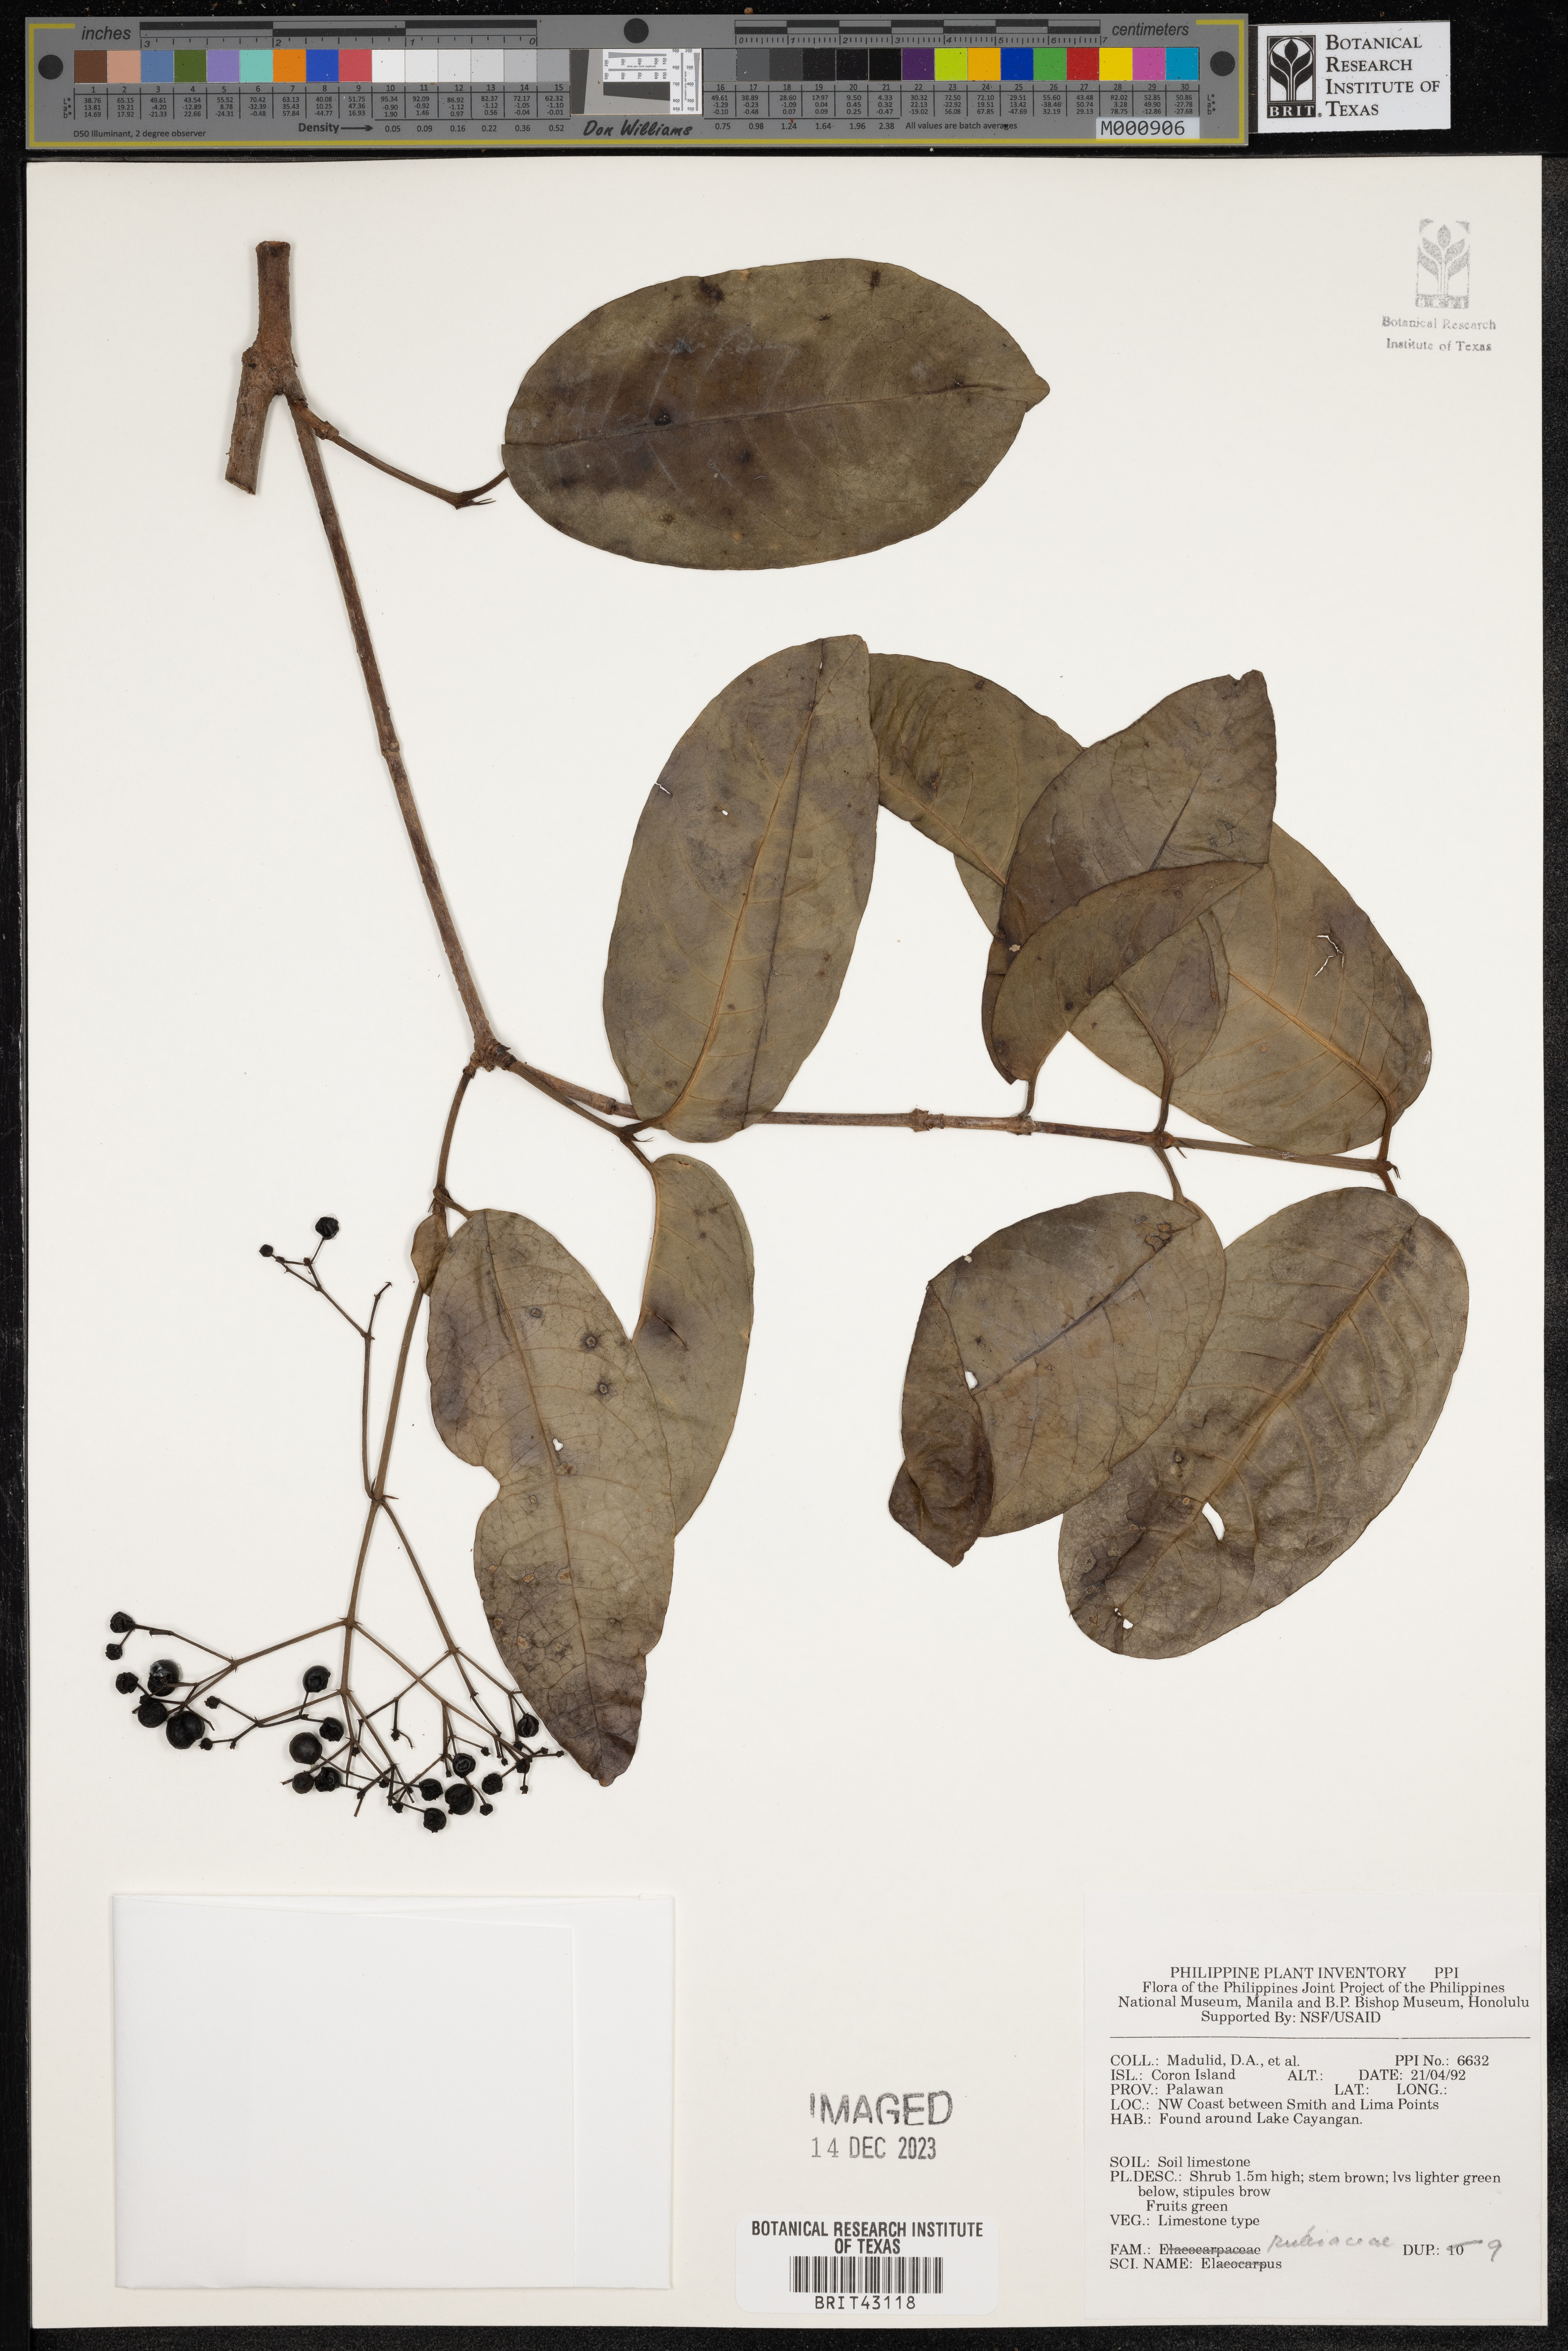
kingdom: Plantae
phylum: Tracheophyta
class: Magnoliopsida
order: Gentianales
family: Rubiaceae
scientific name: Rubiaceae
